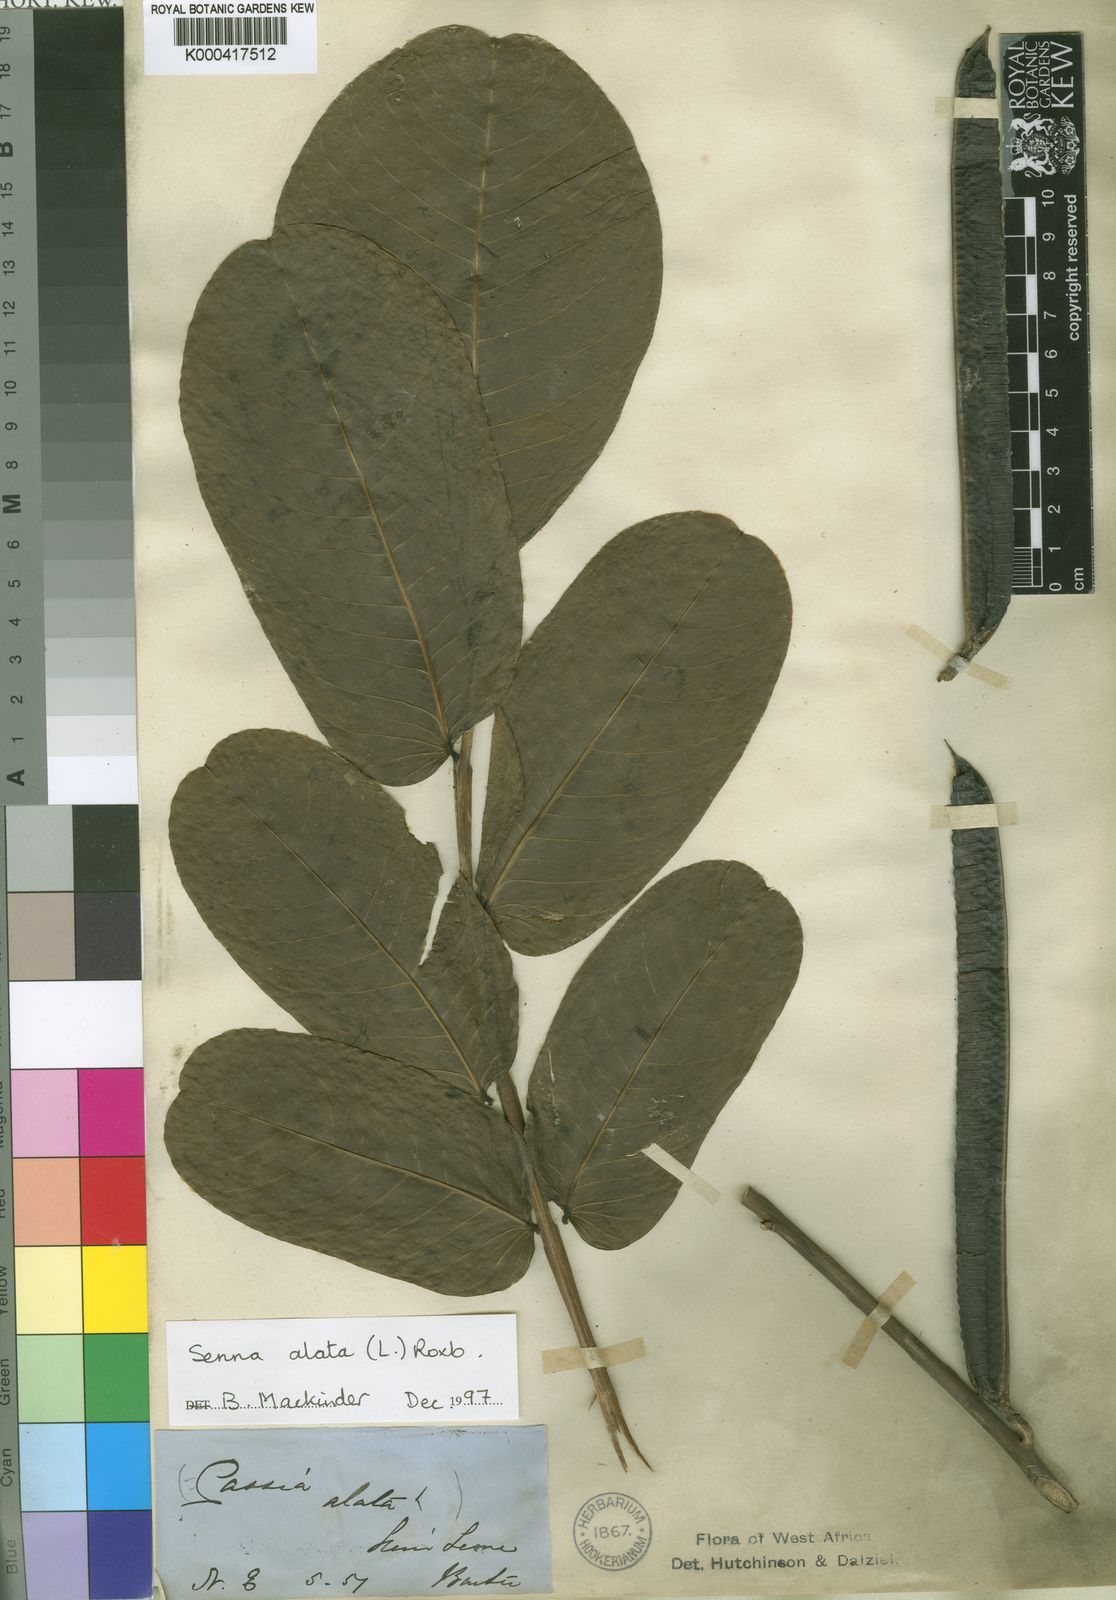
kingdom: Plantae
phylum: Tracheophyta
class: Magnoliopsida
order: Fabales
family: Fabaceae
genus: Senna
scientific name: Senna alata
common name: Emperor's candlesticks
